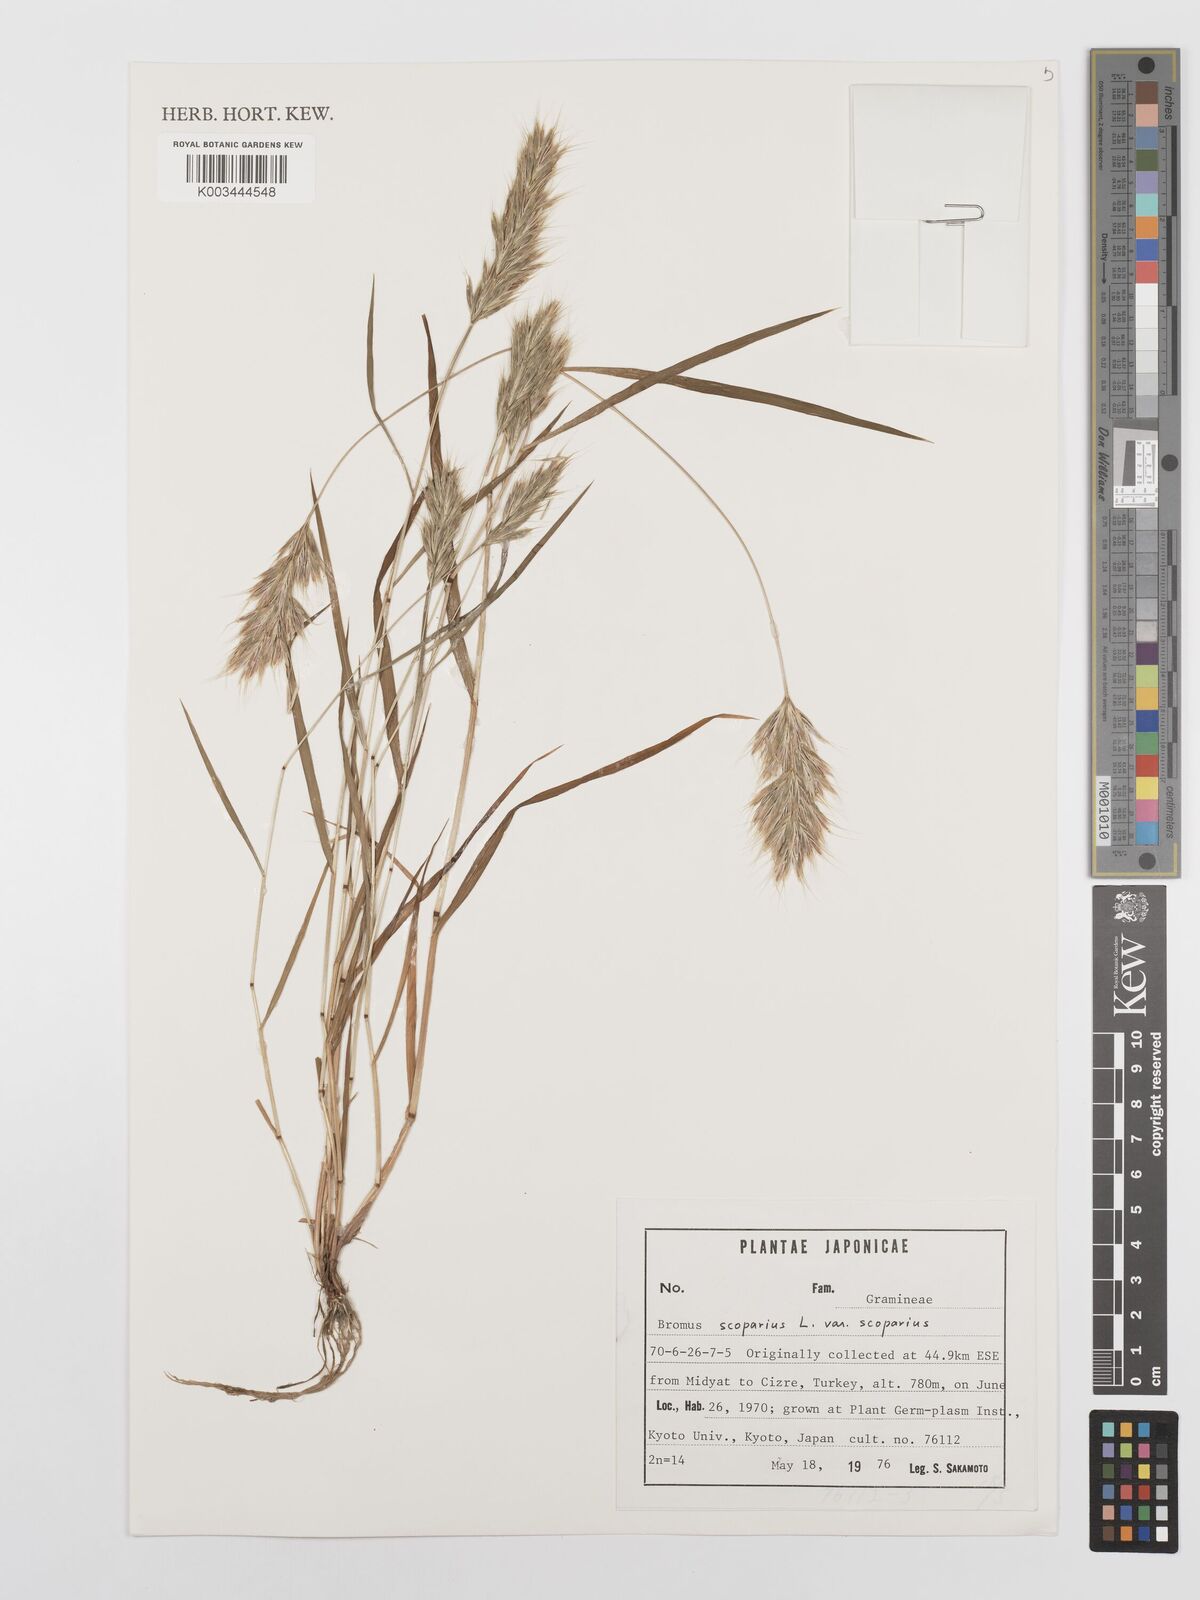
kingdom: Plantae
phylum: Tracheophyta
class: Liliopsida
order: Poales
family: Poaceae
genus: Bromus
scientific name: Bromus scoparius
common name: Broom brome
